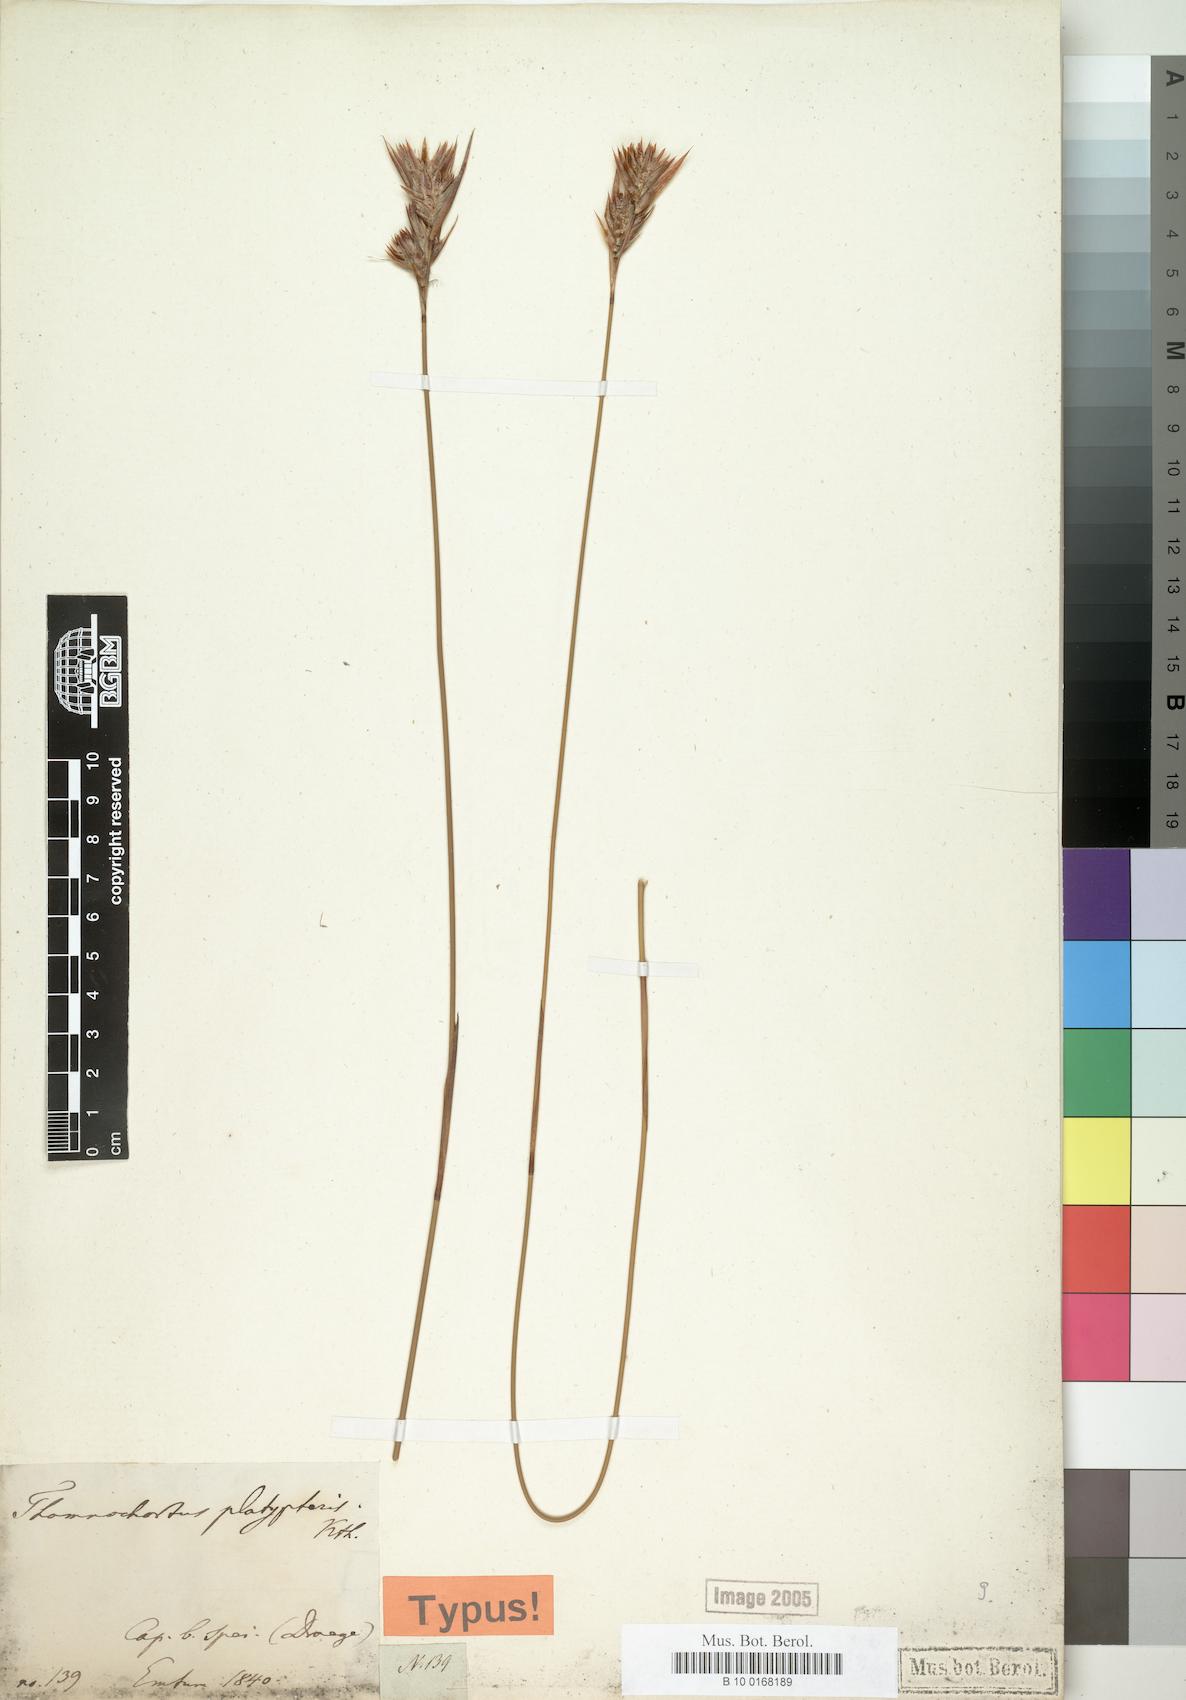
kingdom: Plantae
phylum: Tracheophyta
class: Liliopsida
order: Poales
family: Restionaceae
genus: Thamnochortus
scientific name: Thamnochortus platypteris
